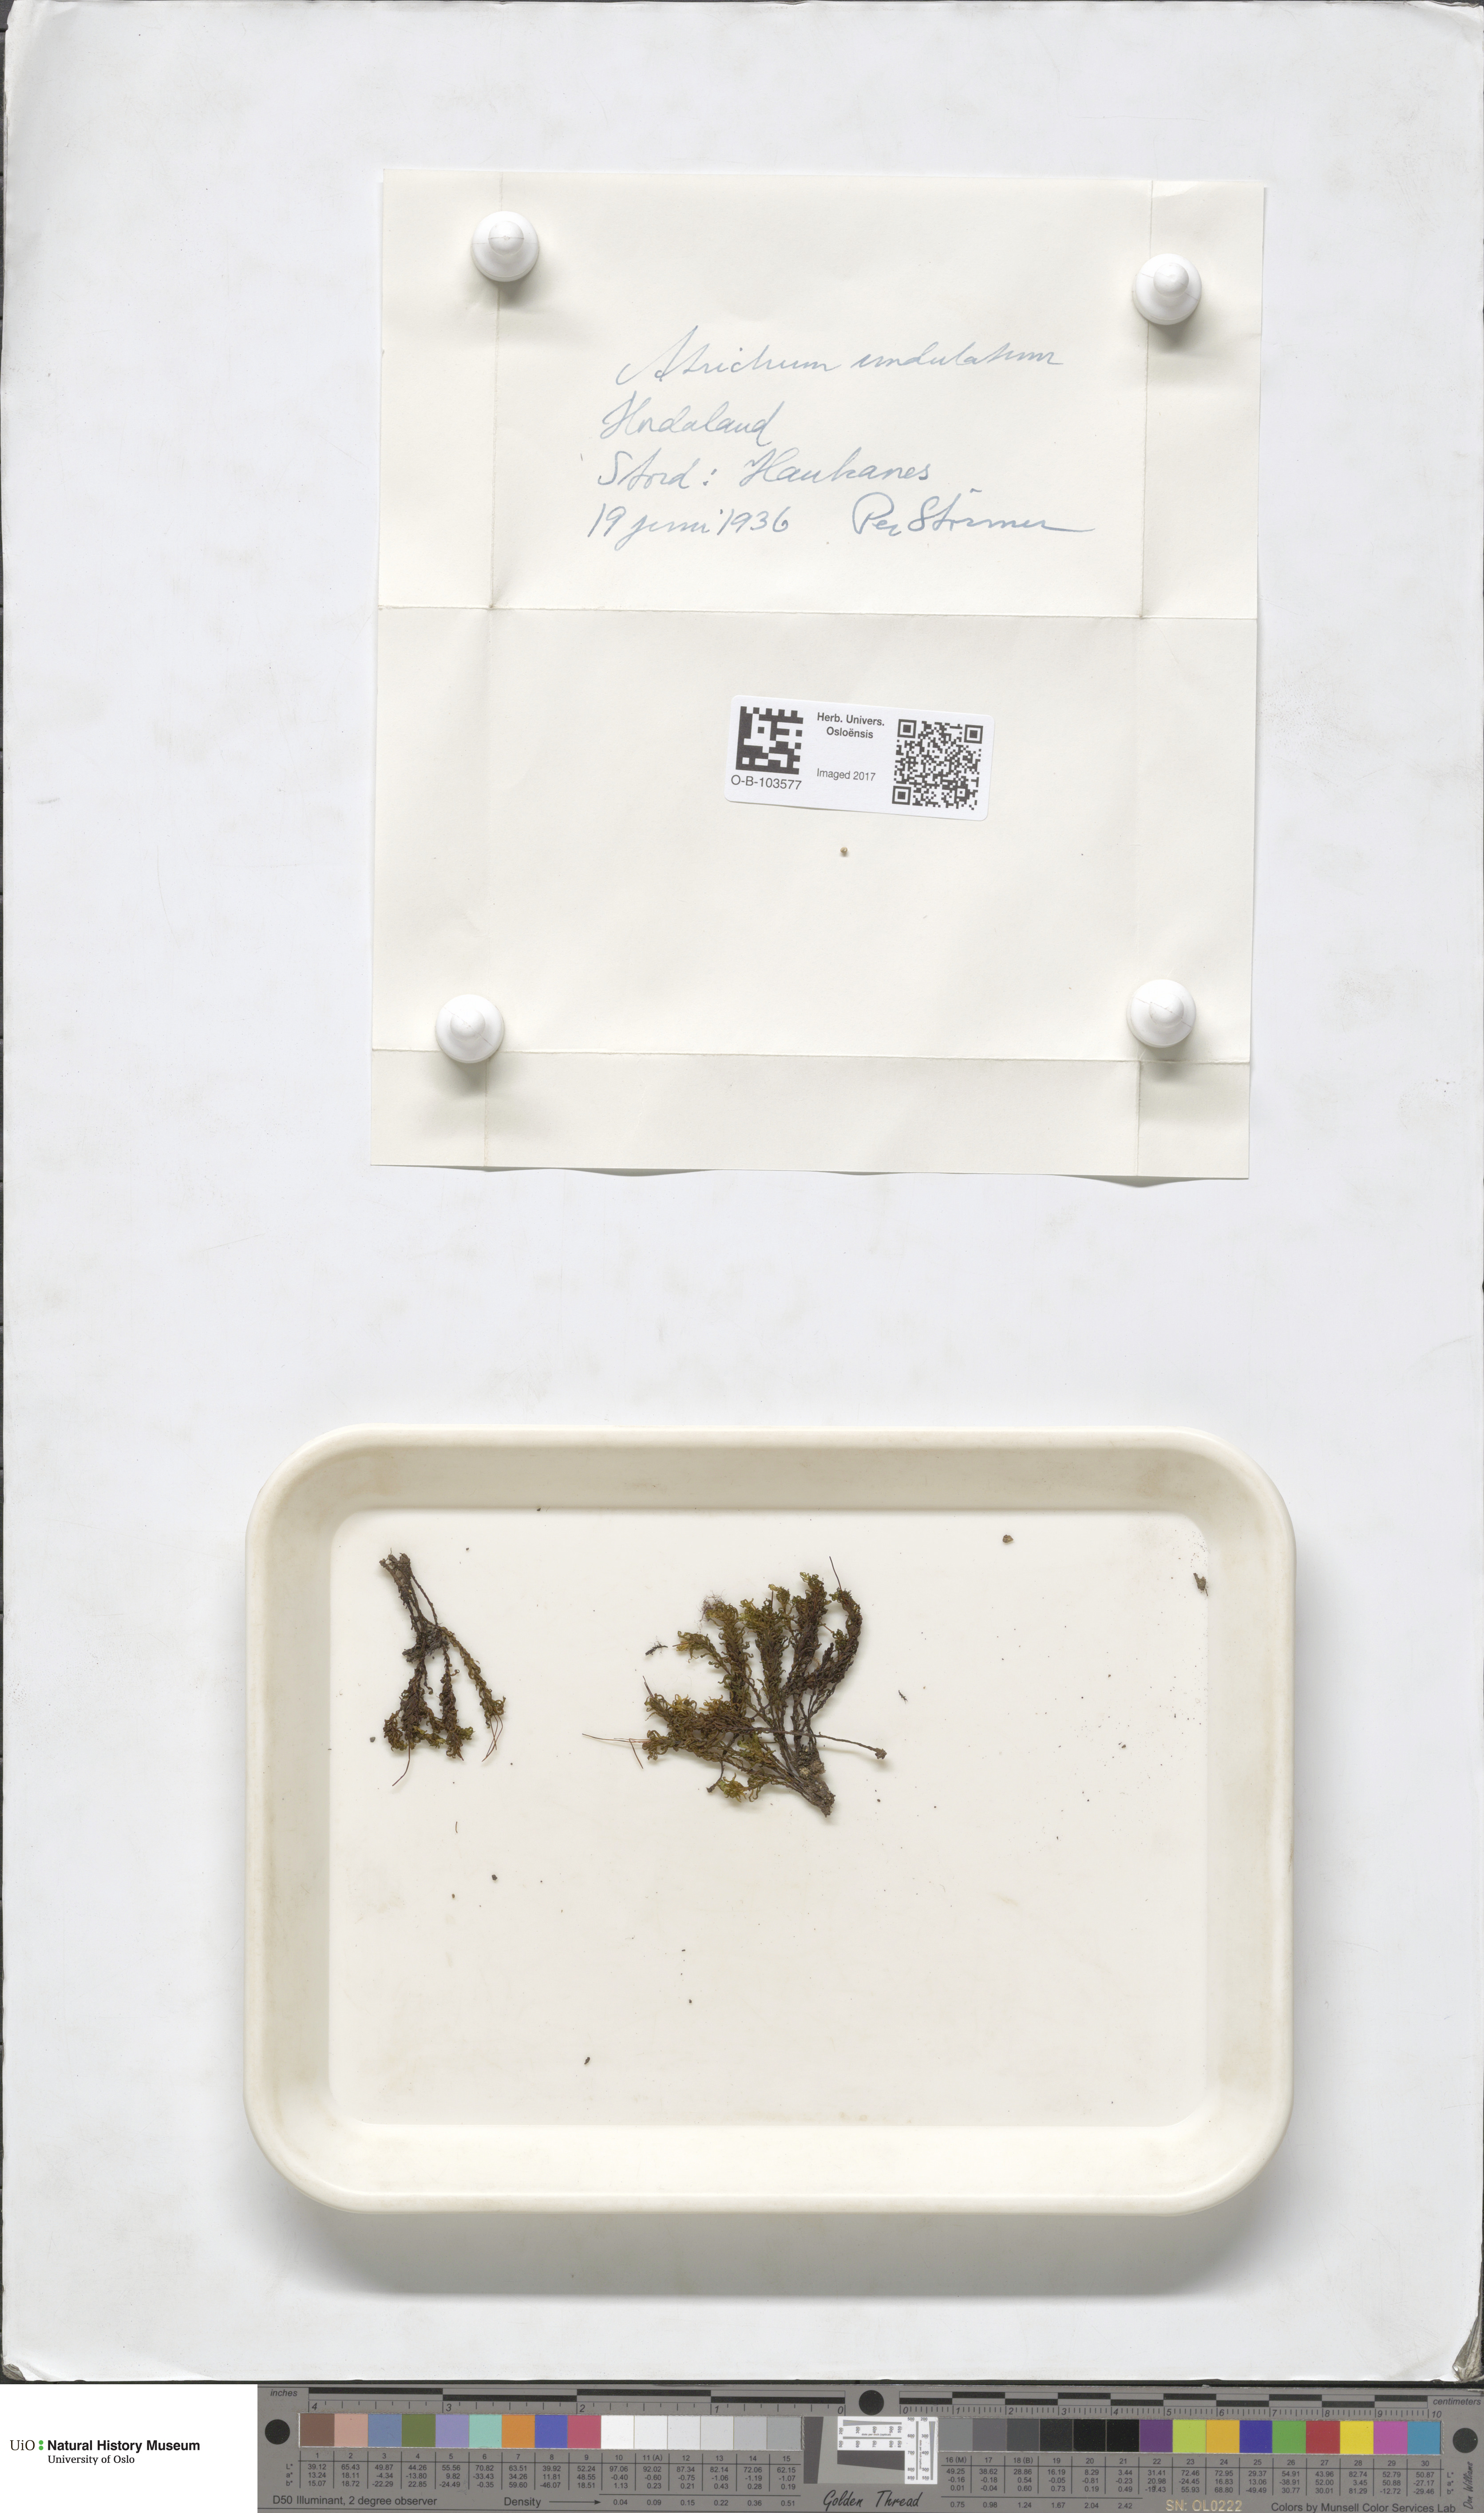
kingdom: Plantae
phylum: Bryophyta
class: Polytrichopsida
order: Polytrichales
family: Polytrichaceae
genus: Atrichum
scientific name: Atrichum undulatum
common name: Common smoothcap
